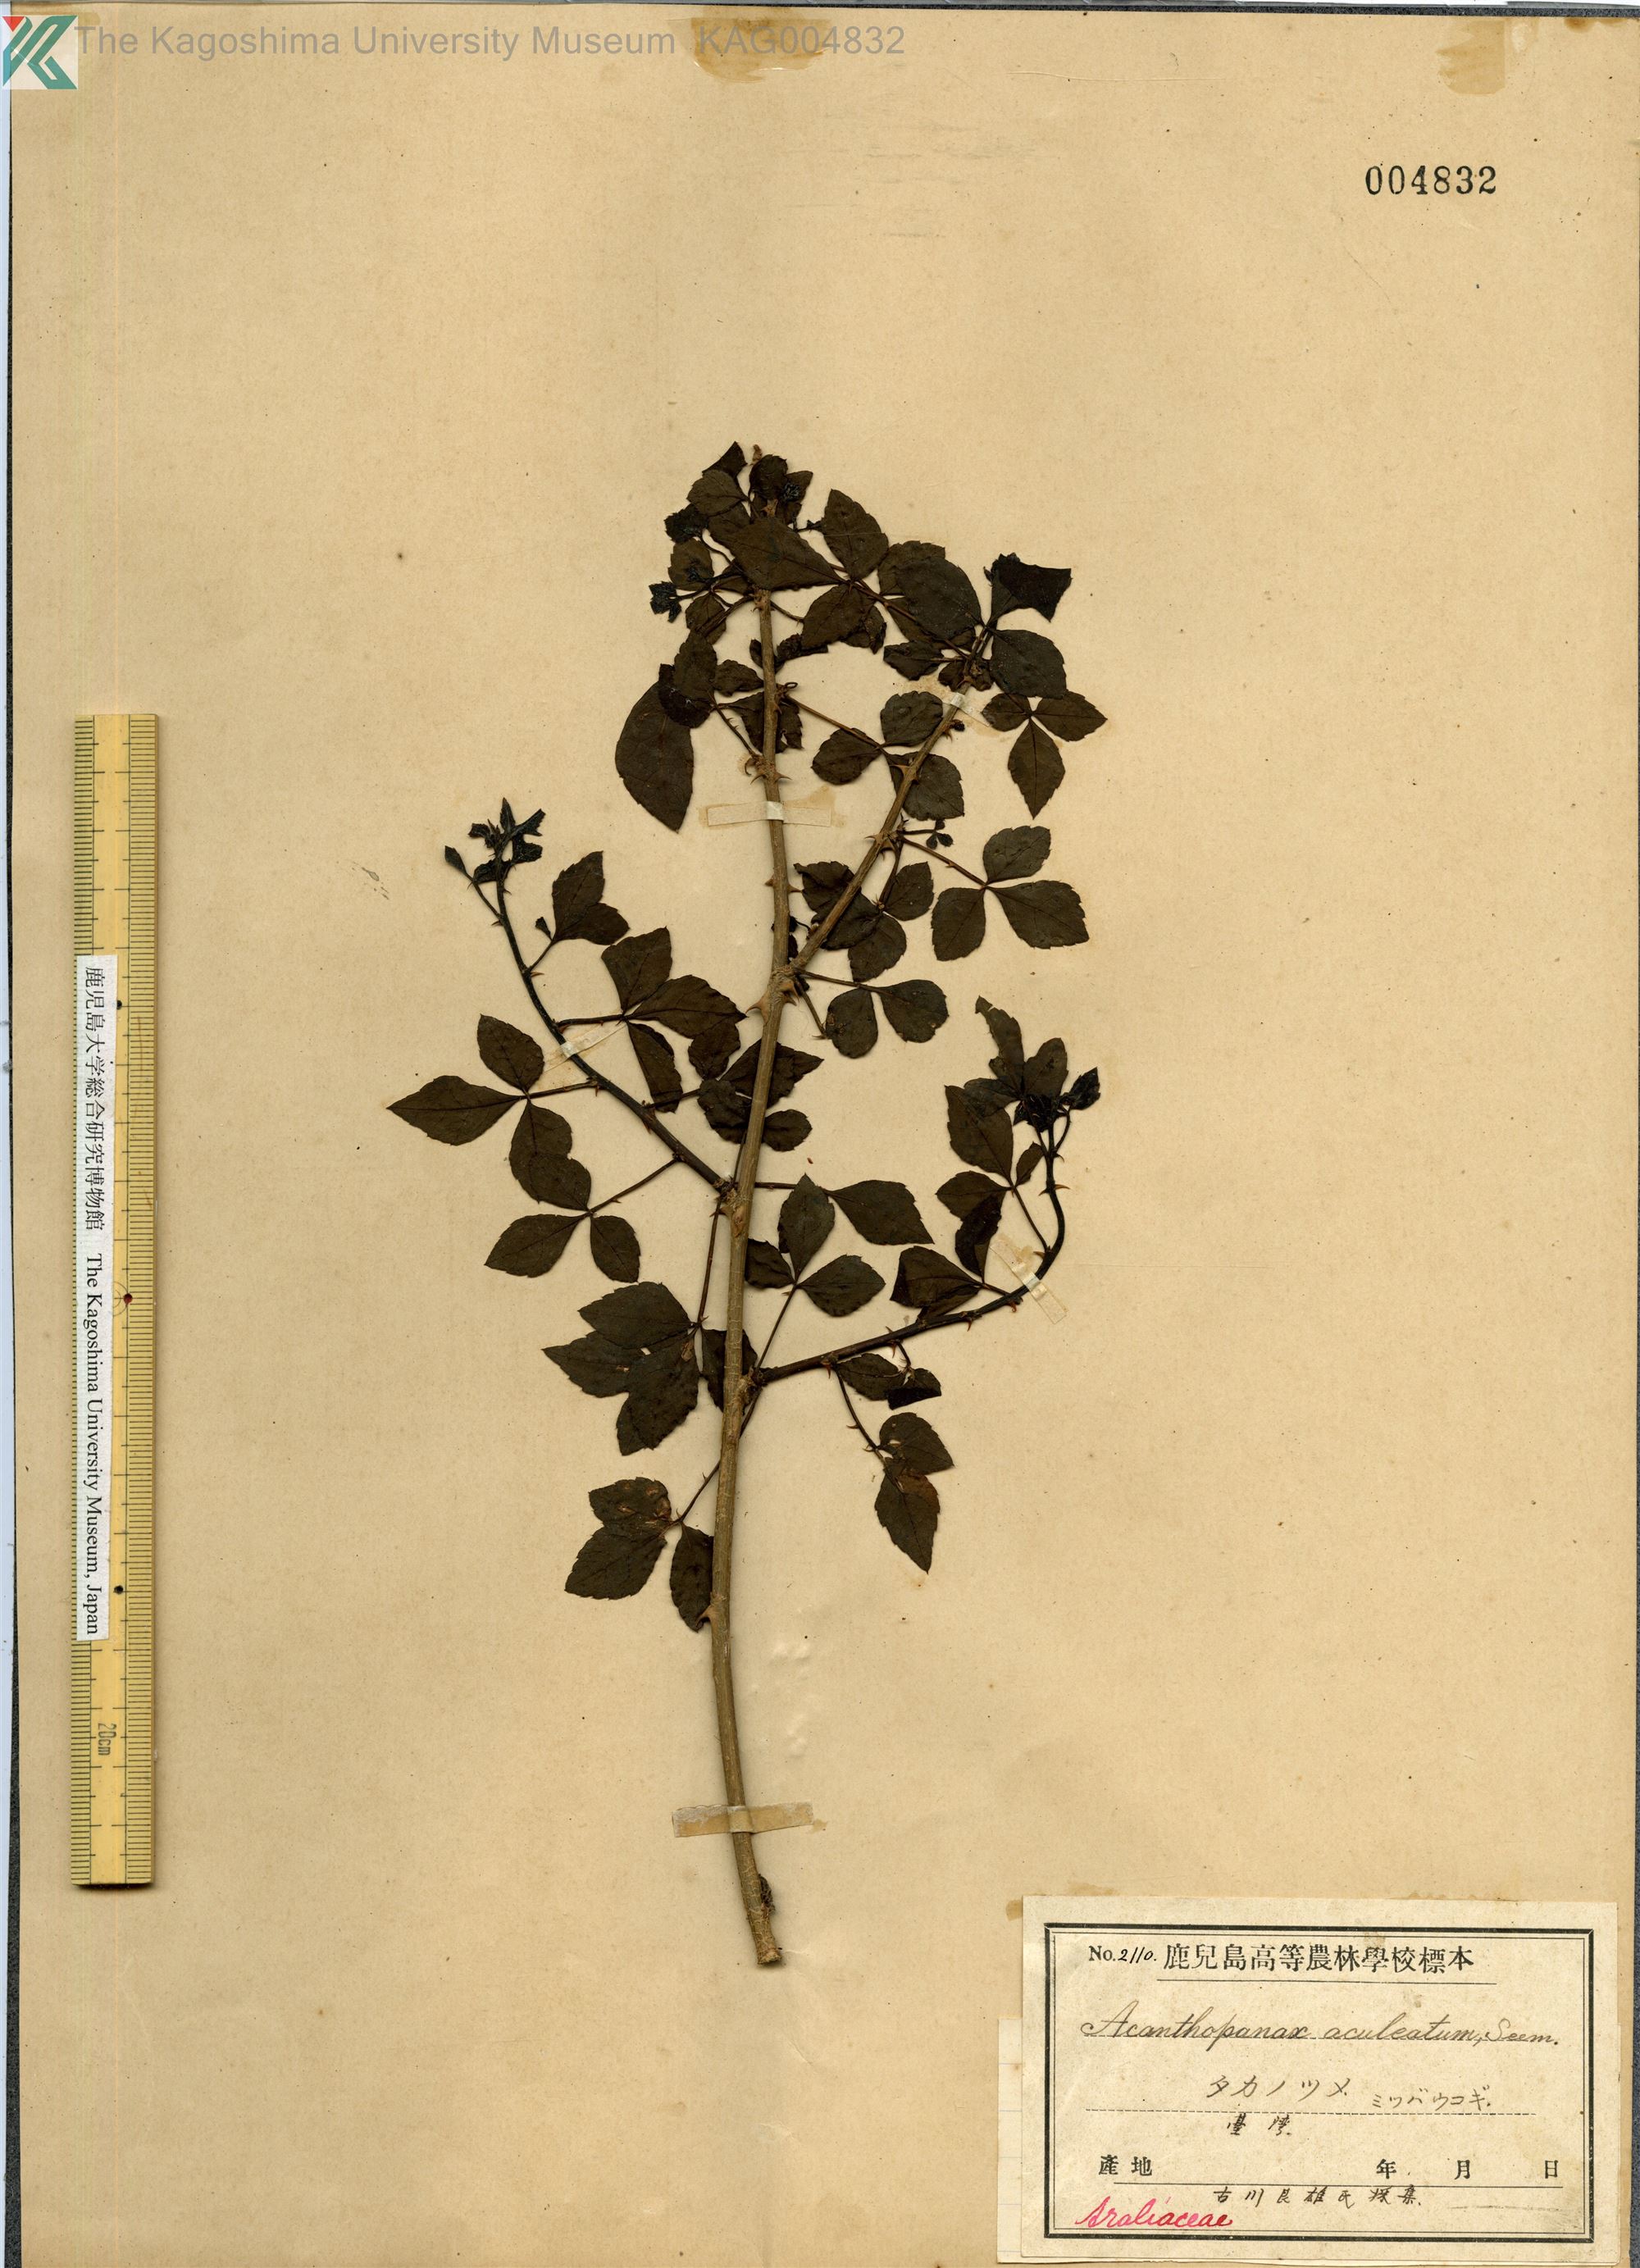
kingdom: Plantae
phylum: Tracheophyta
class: Magnoliopsida
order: Apiales
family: Araliaceae
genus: Eleutherococcus
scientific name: Eleutherococcus trifoliatus
